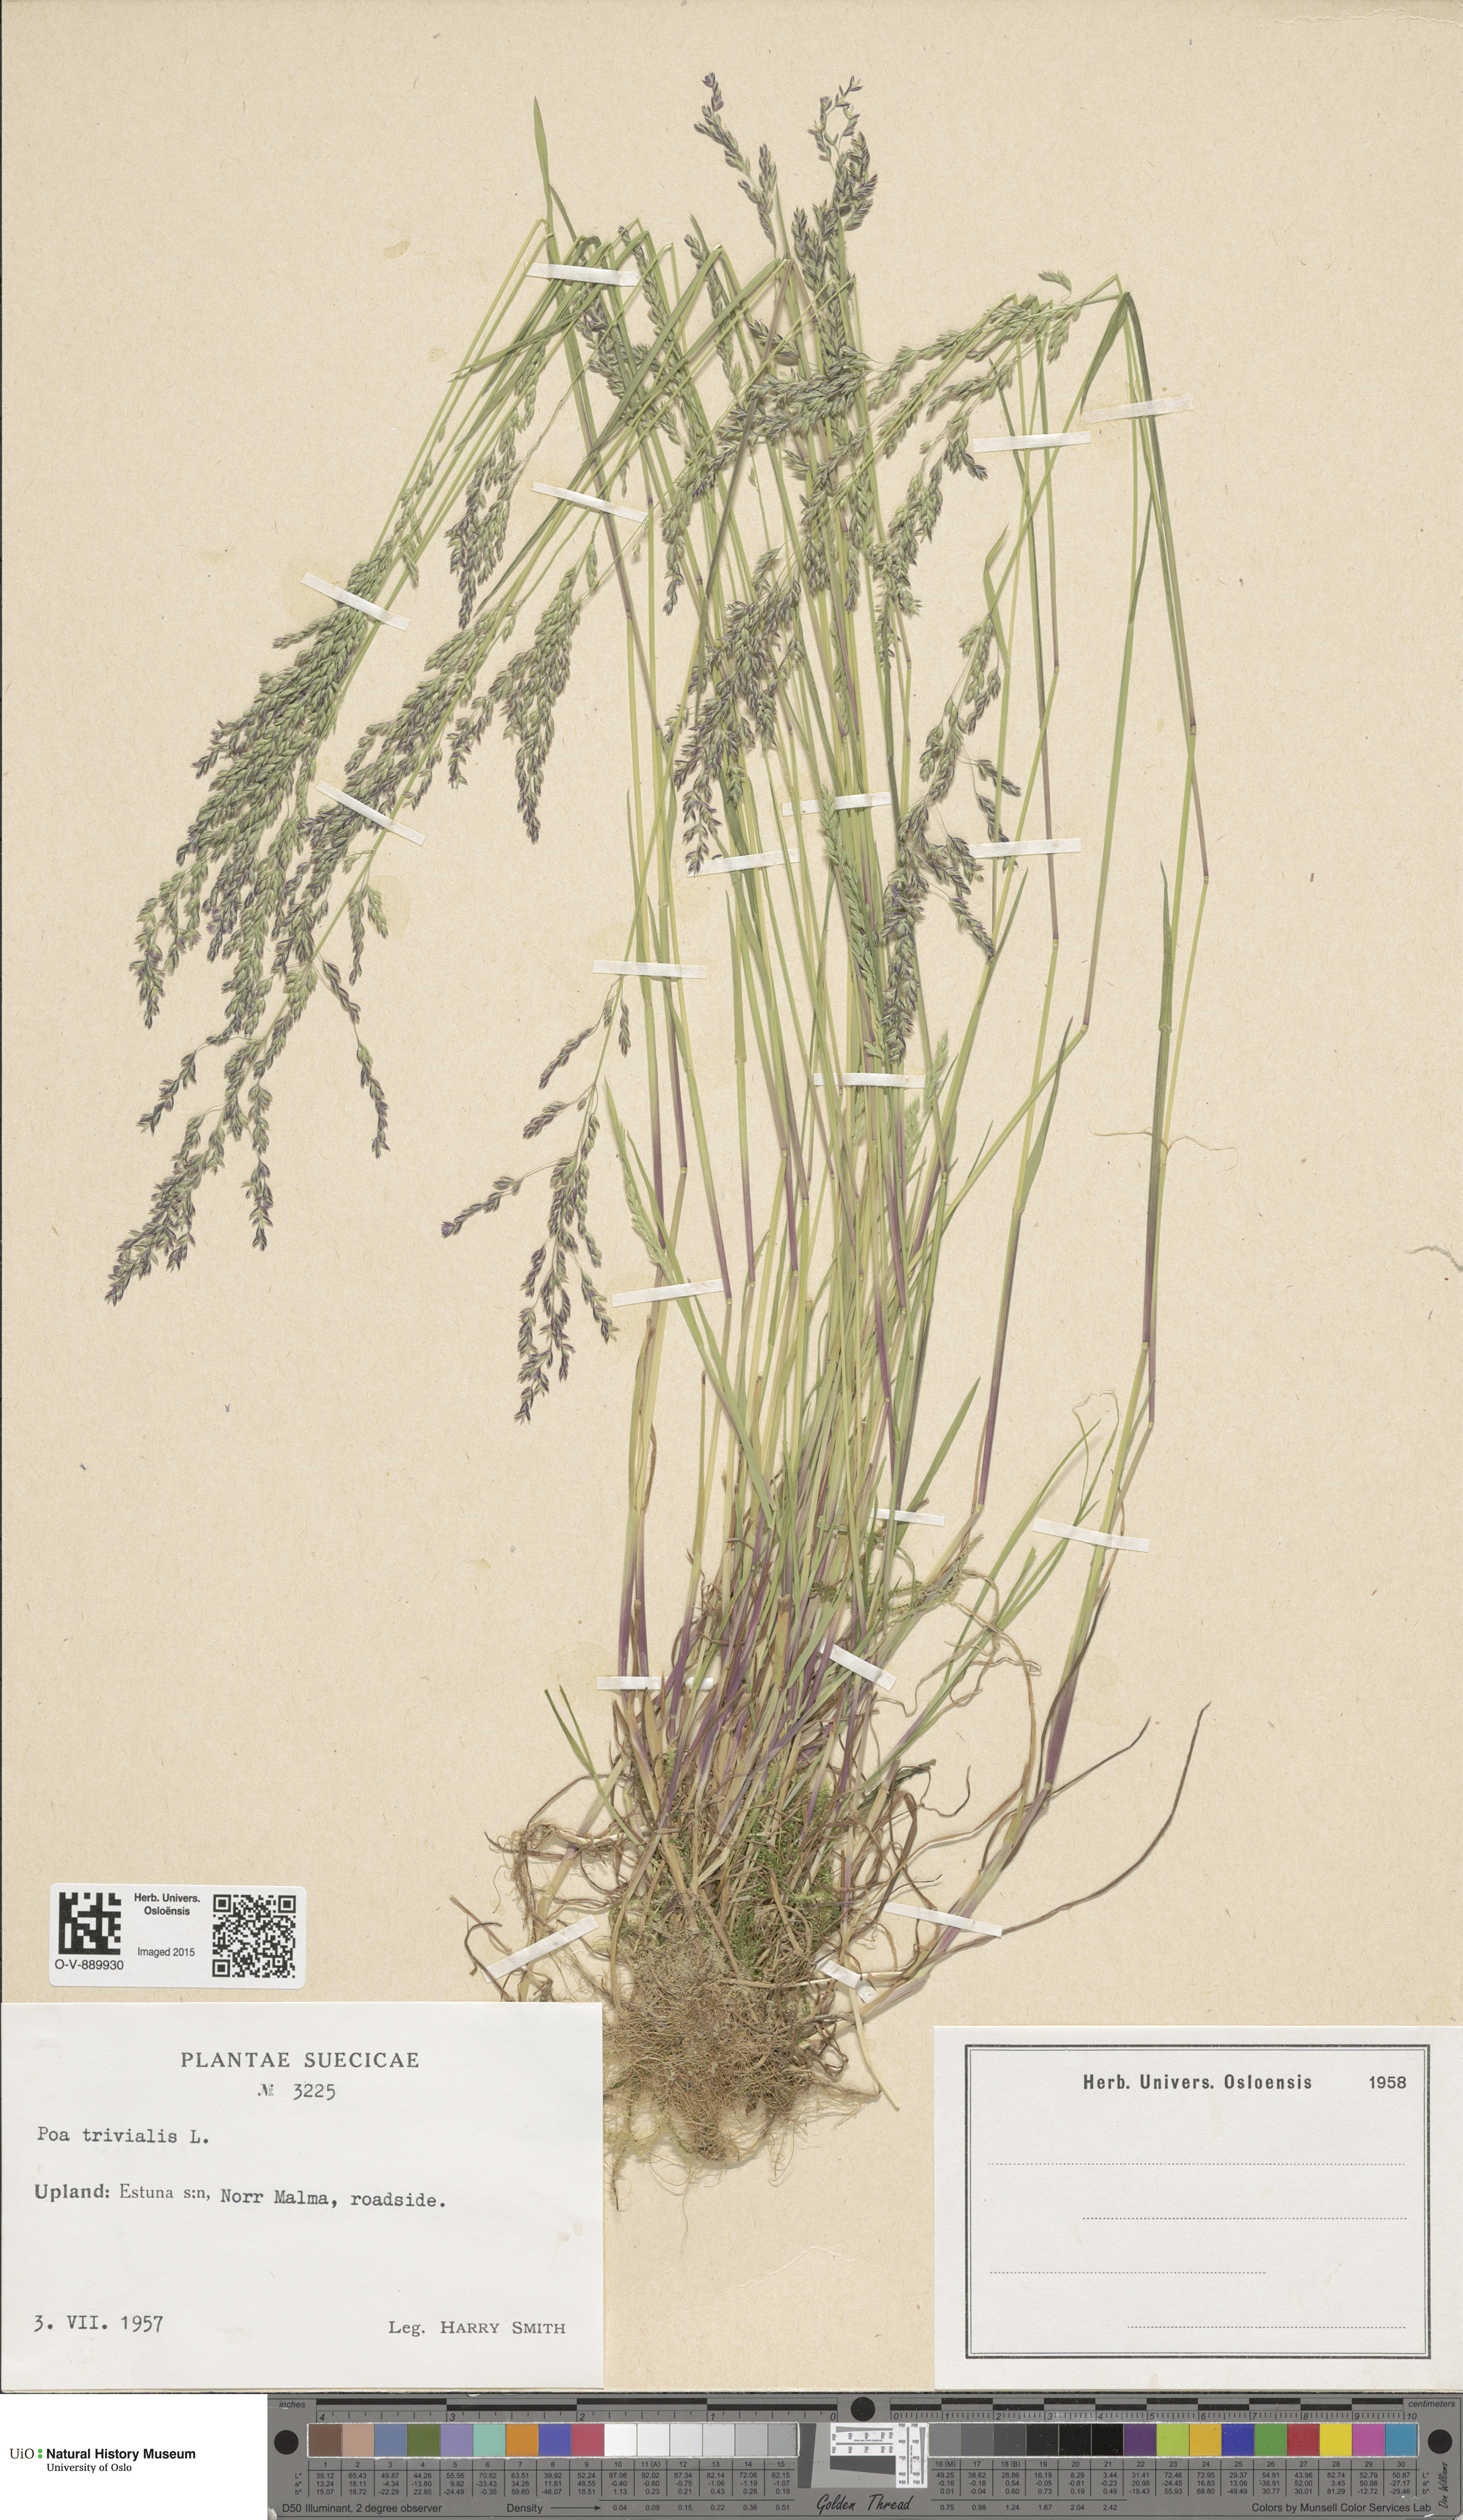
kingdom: Plantae
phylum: Tracheophyta
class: Liliopsida
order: Poales
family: Poaceae
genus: Poa
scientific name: Poa trivialis
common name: Rough bluegrass
